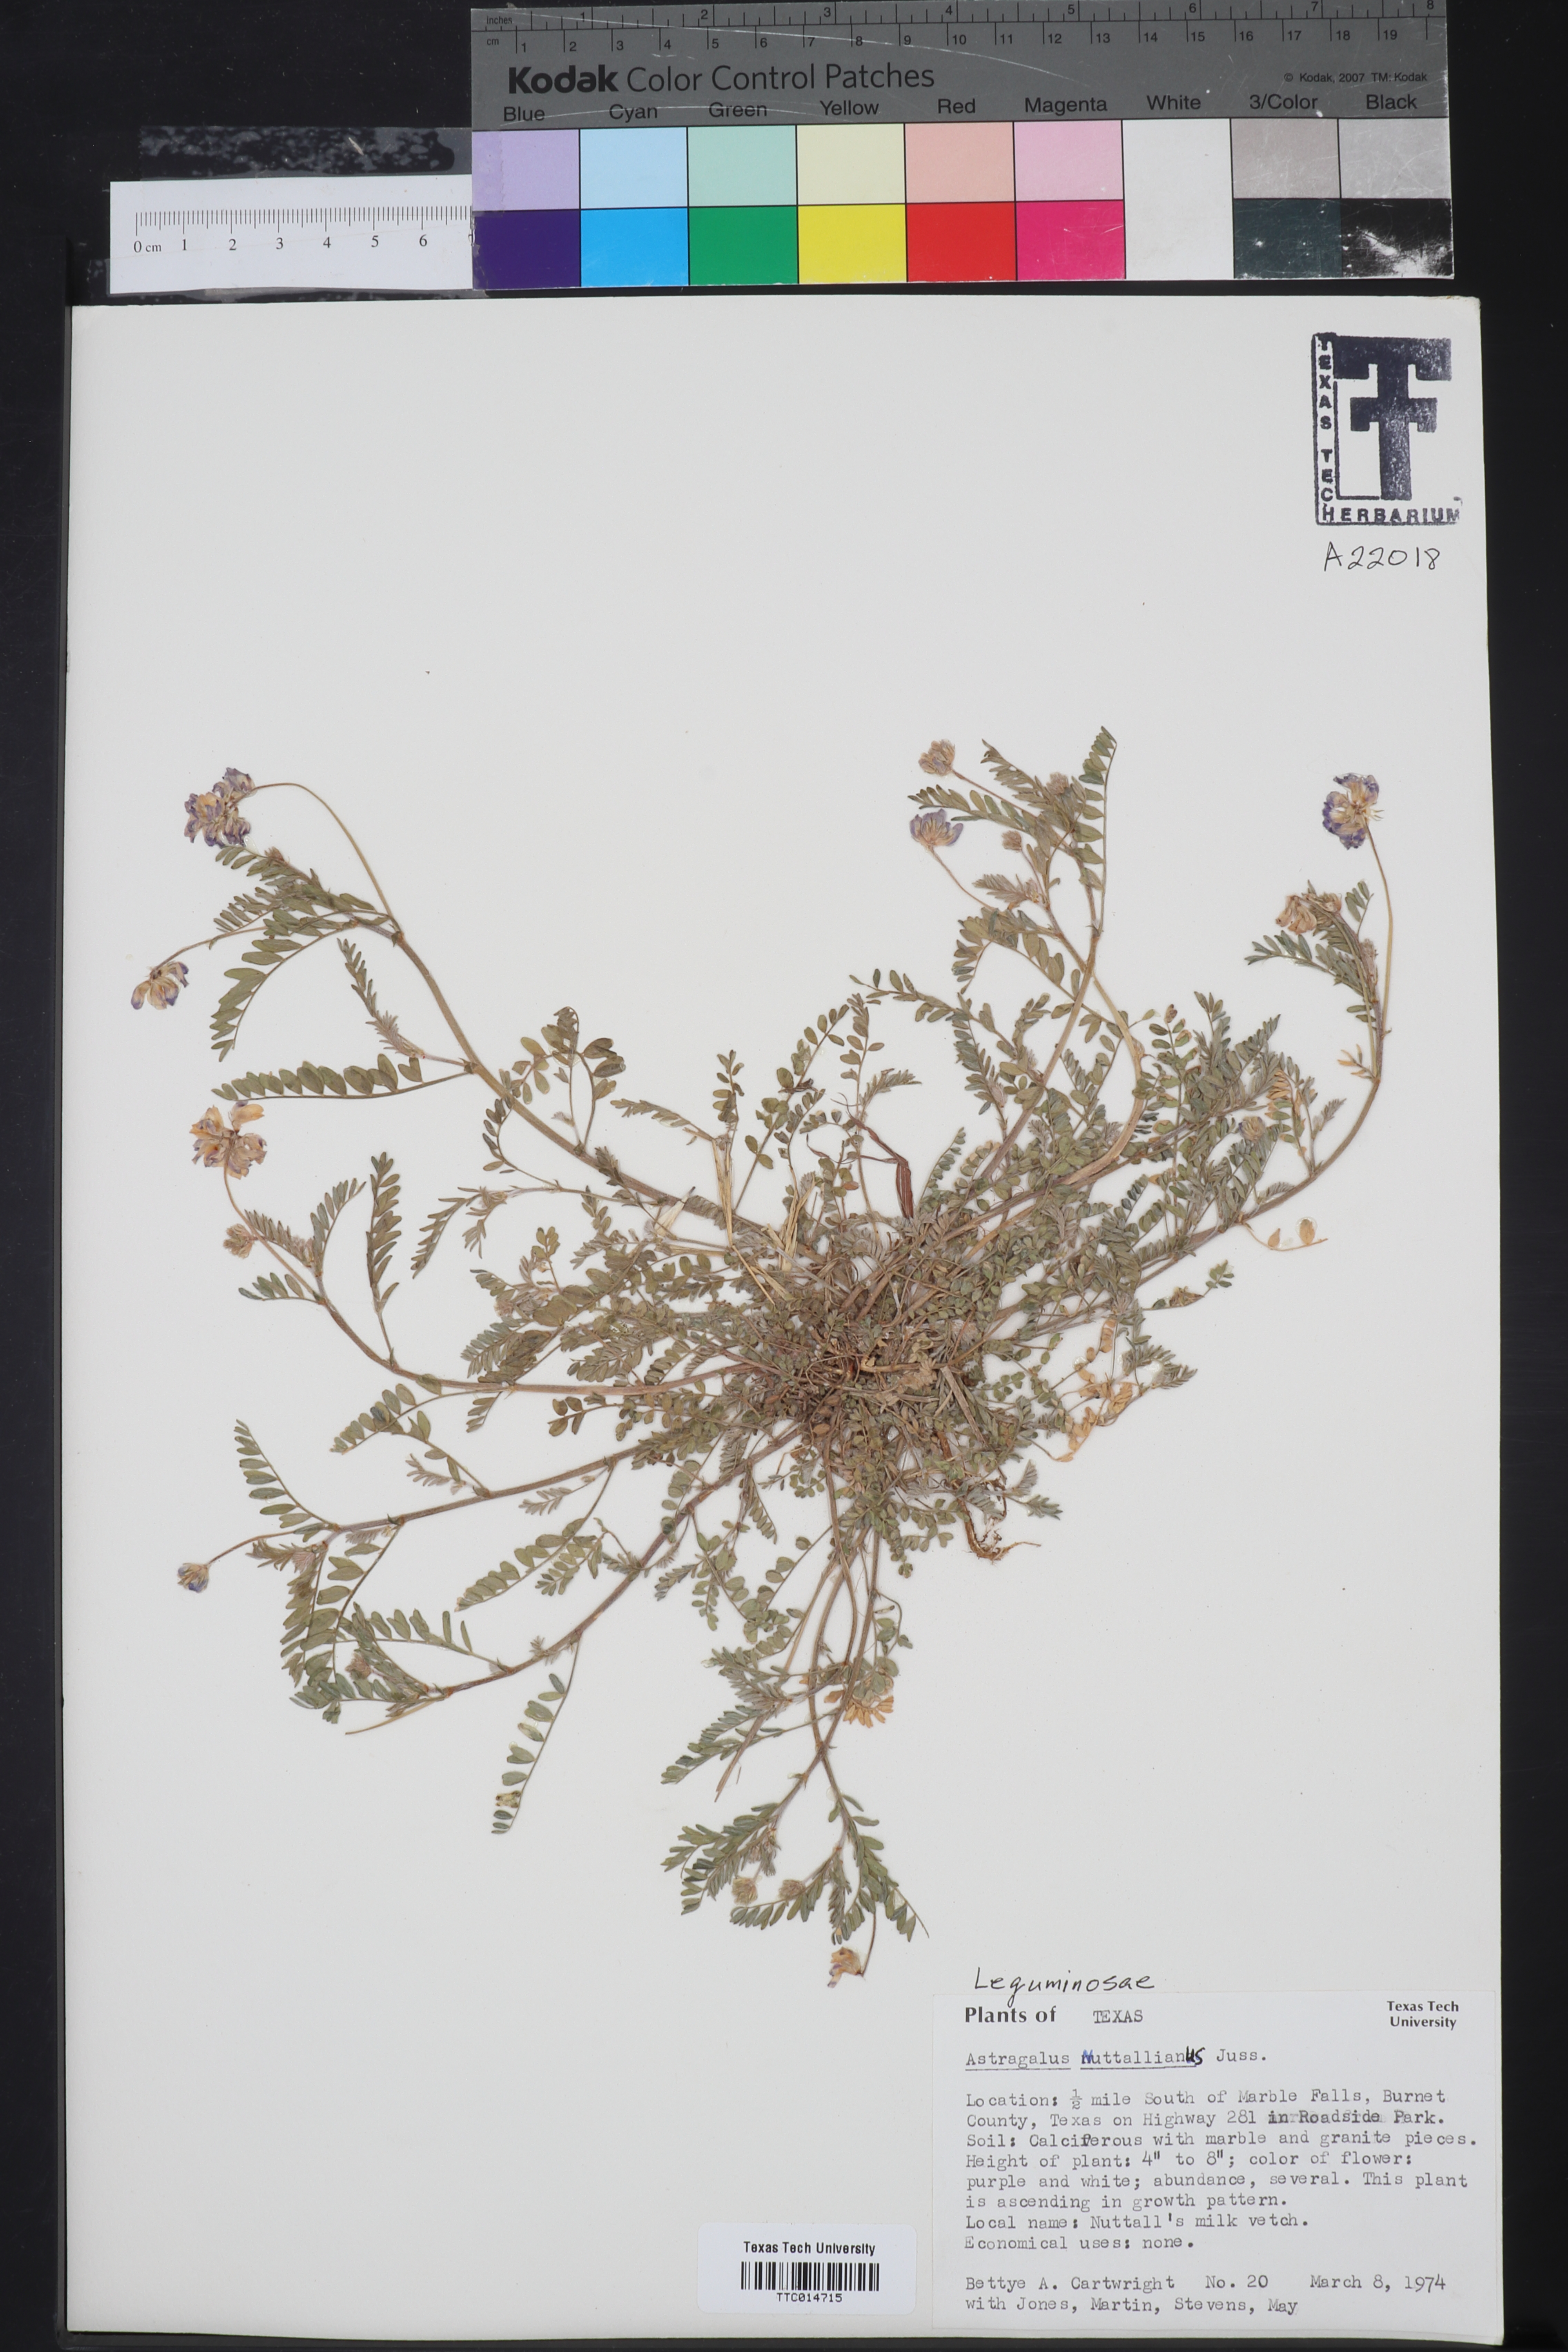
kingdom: Plantae
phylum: Tracheophyta
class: Magnoliopsida
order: Fabales
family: Fabaceae
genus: Astragalus
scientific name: Astragalus nuttallianus
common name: Smallflowered milkvetch
